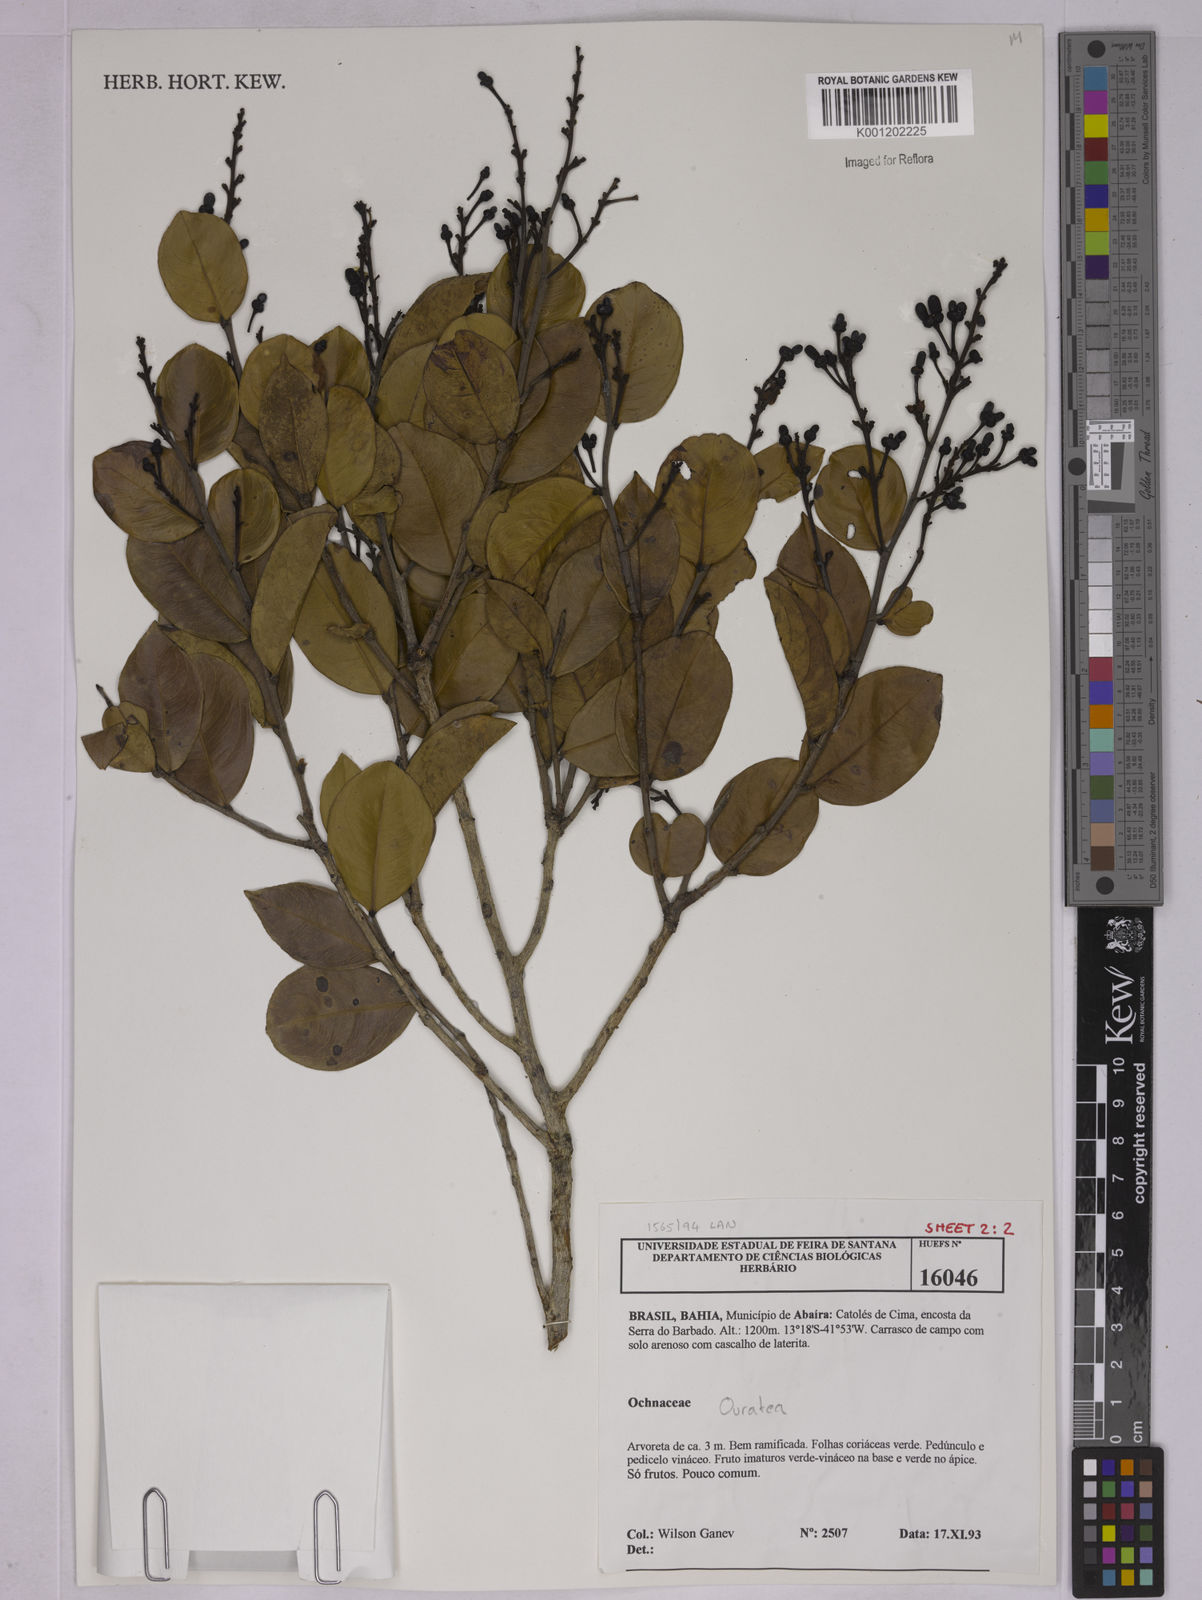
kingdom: Plantae
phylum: Tracheophyta
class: Magnoliopsida
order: Malpighiales
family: Ochnaceae
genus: Ouratea
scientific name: Ouratea
